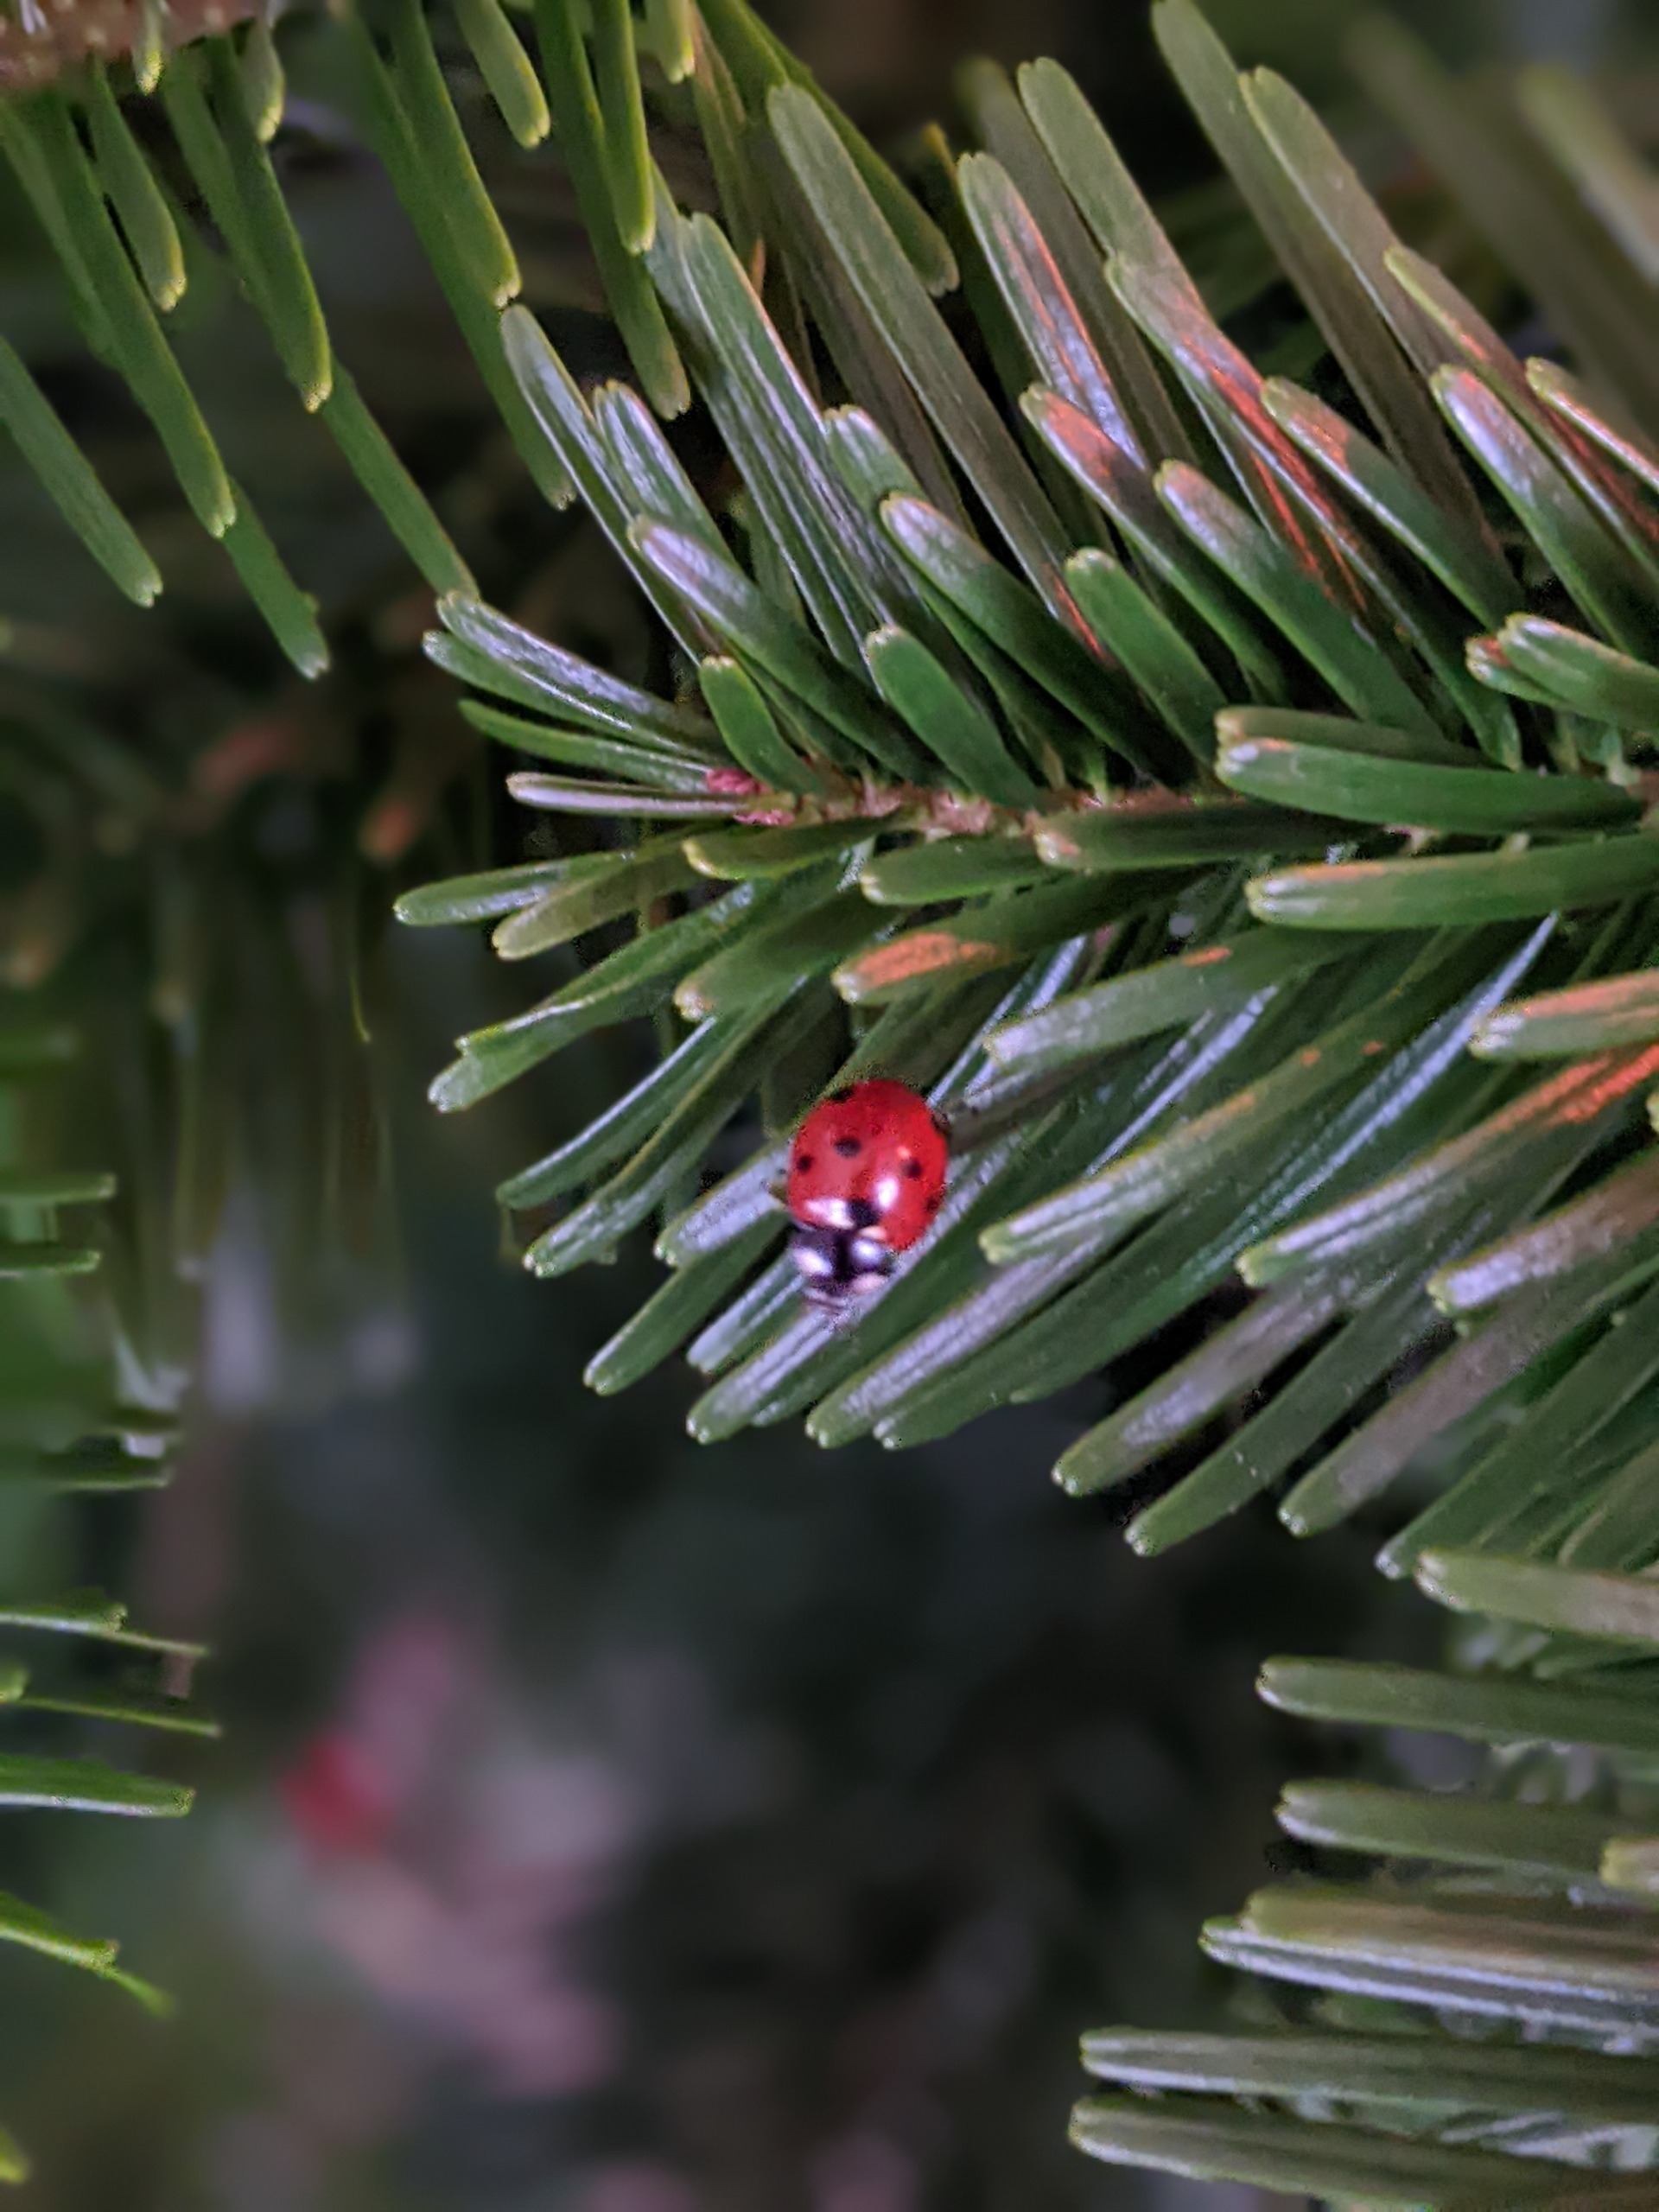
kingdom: Animalia
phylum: Arthropoda
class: Insecta
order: Coleoptera
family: Coccinellidae
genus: Coccinella
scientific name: Coccinella septempunctata
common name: Syvplettet mariehøne
